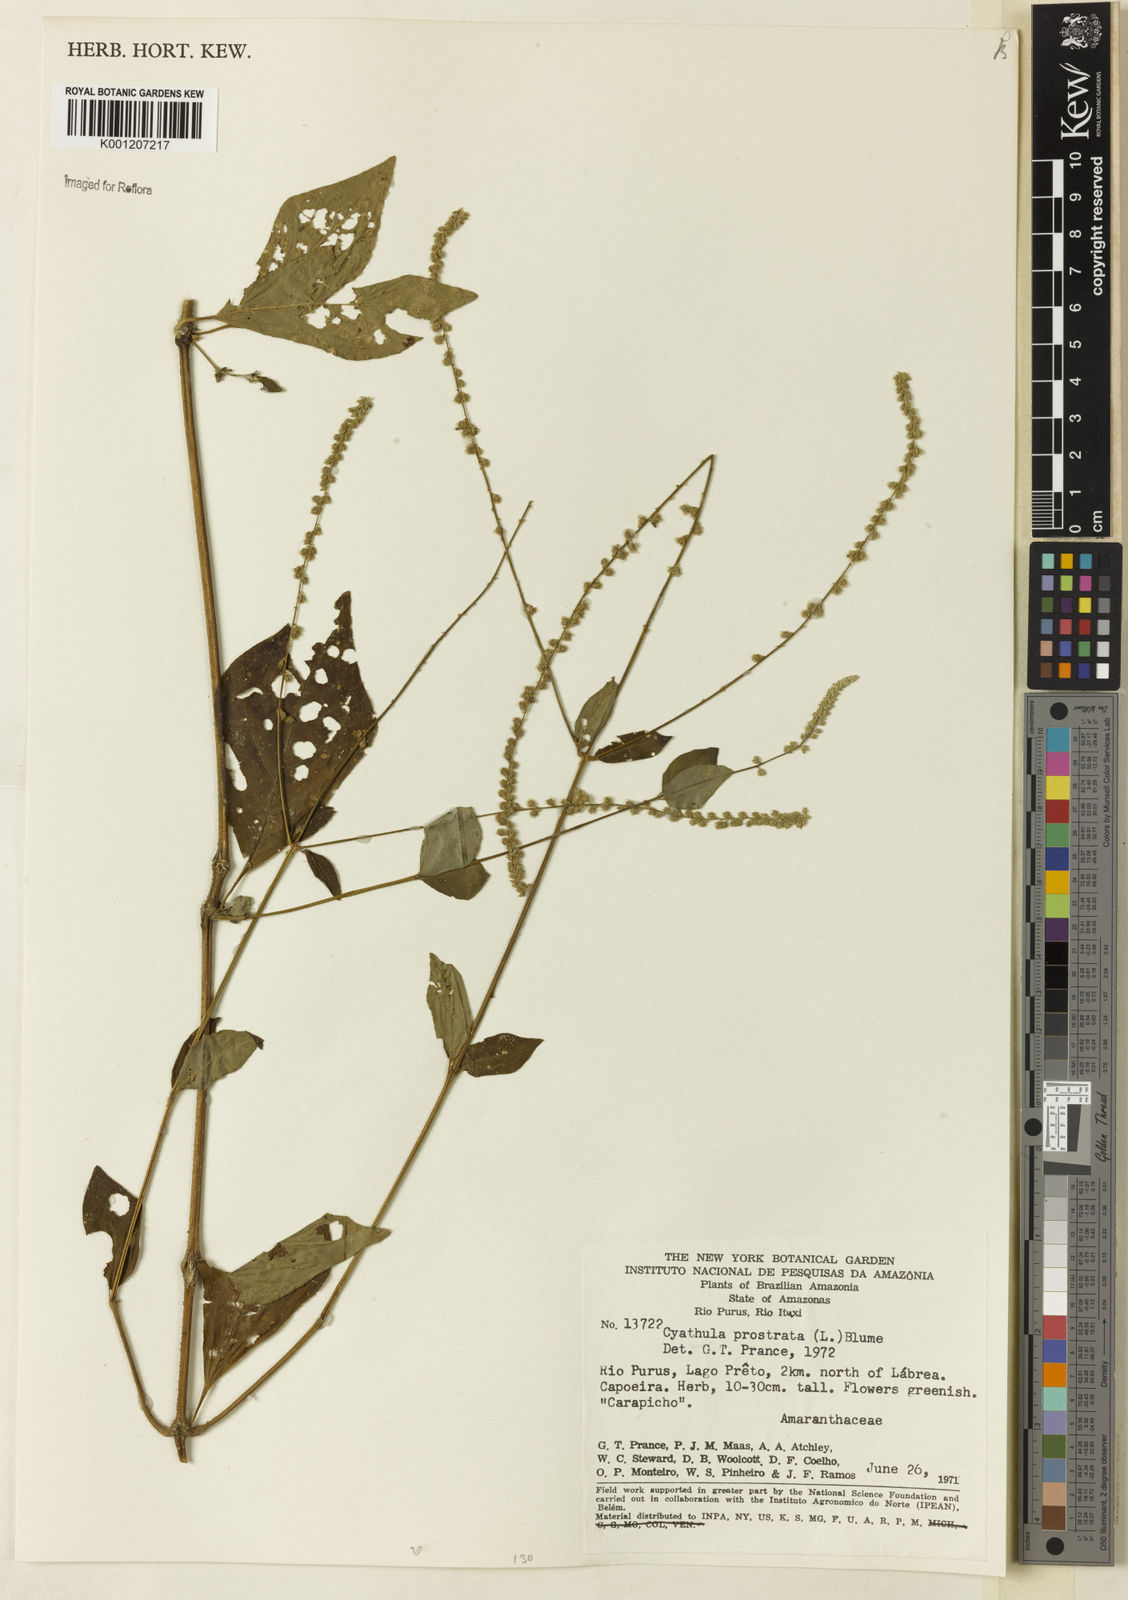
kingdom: Plantae
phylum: Tracheophyta
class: Magnoliopsida
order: Caryophyllales
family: Amaranthaceae
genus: Cyathula
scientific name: Cyathula prostrata
